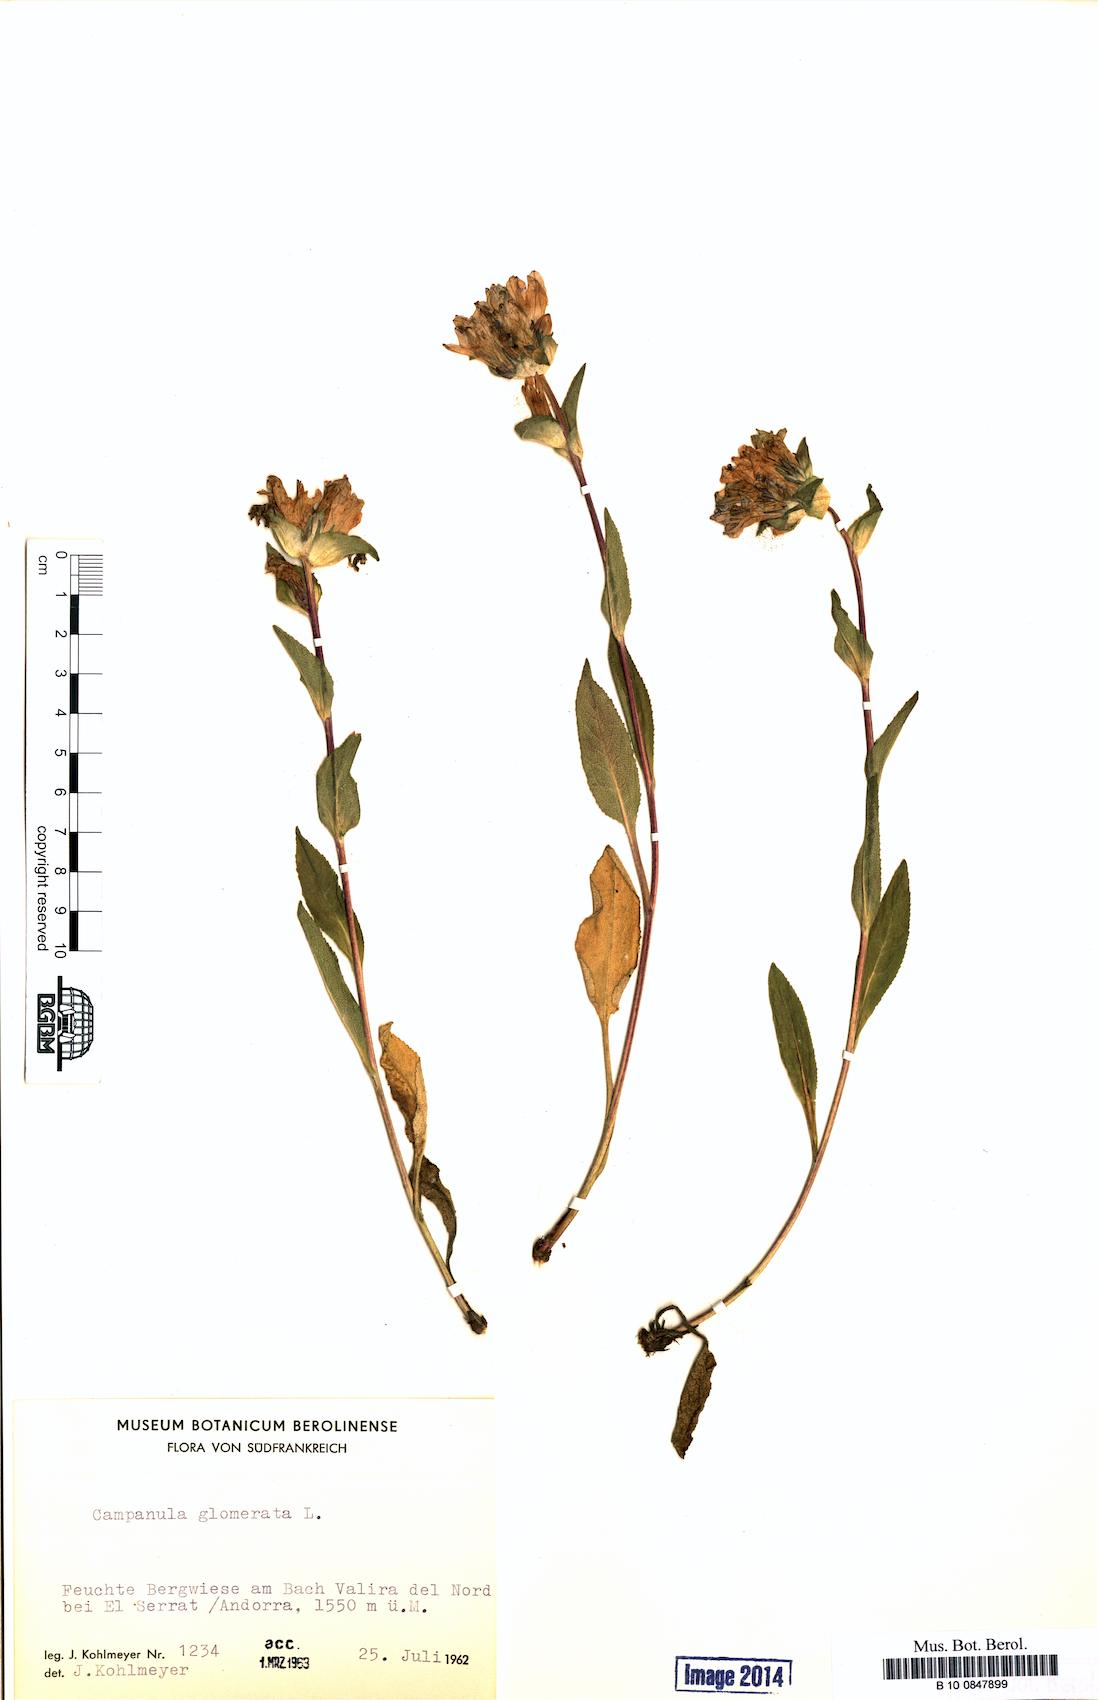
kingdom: Plantae
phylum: Tracheophyta
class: Magnoliopsida
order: Asterales
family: Campanulaceae
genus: Campanula
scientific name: Campanula glomerata
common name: Clustered bellflower
